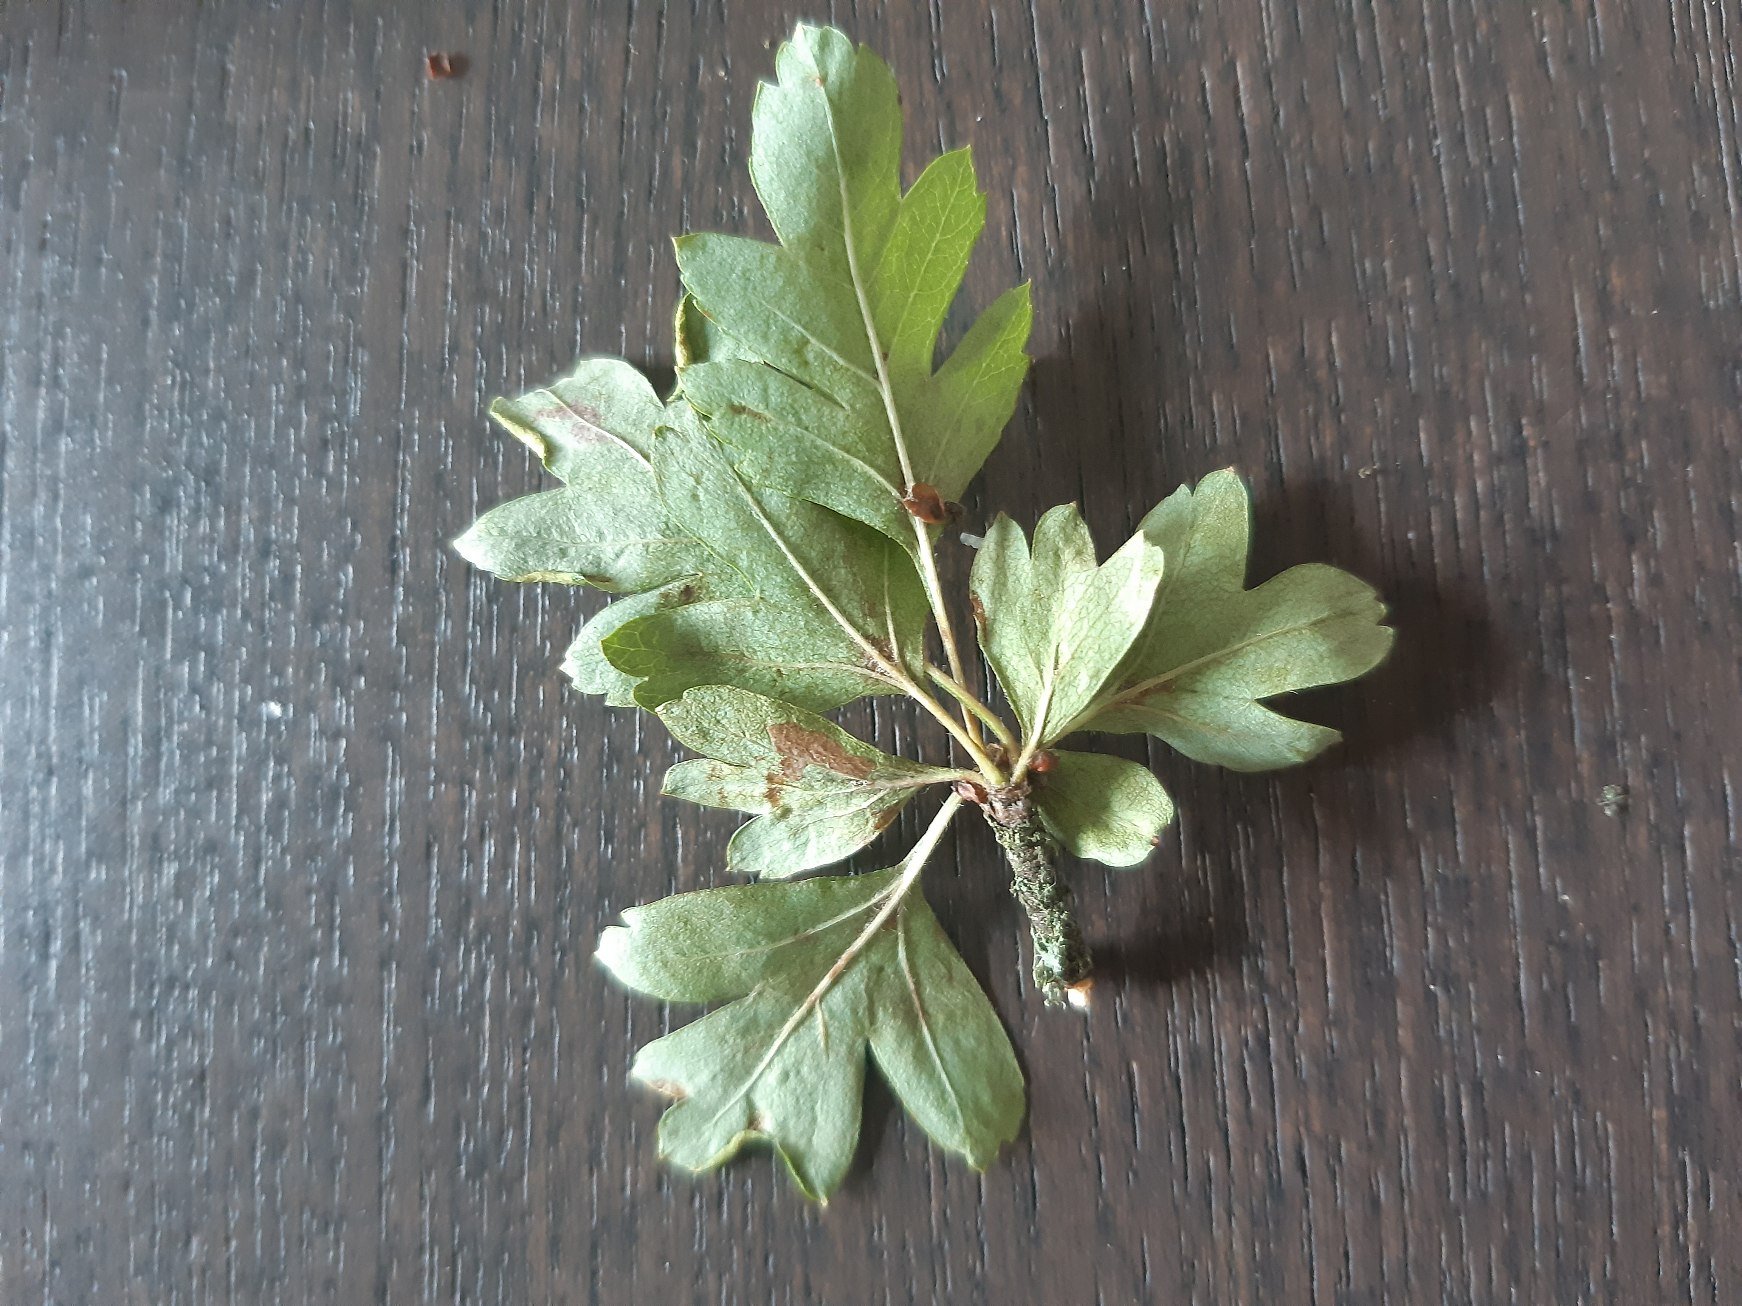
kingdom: Plantae
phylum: Tracheophyta
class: Magnoliopsida
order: Rosales
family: Rosaceae
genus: Crataegus
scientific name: Crataegus monogyna
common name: Engriflet hvidtjørn
